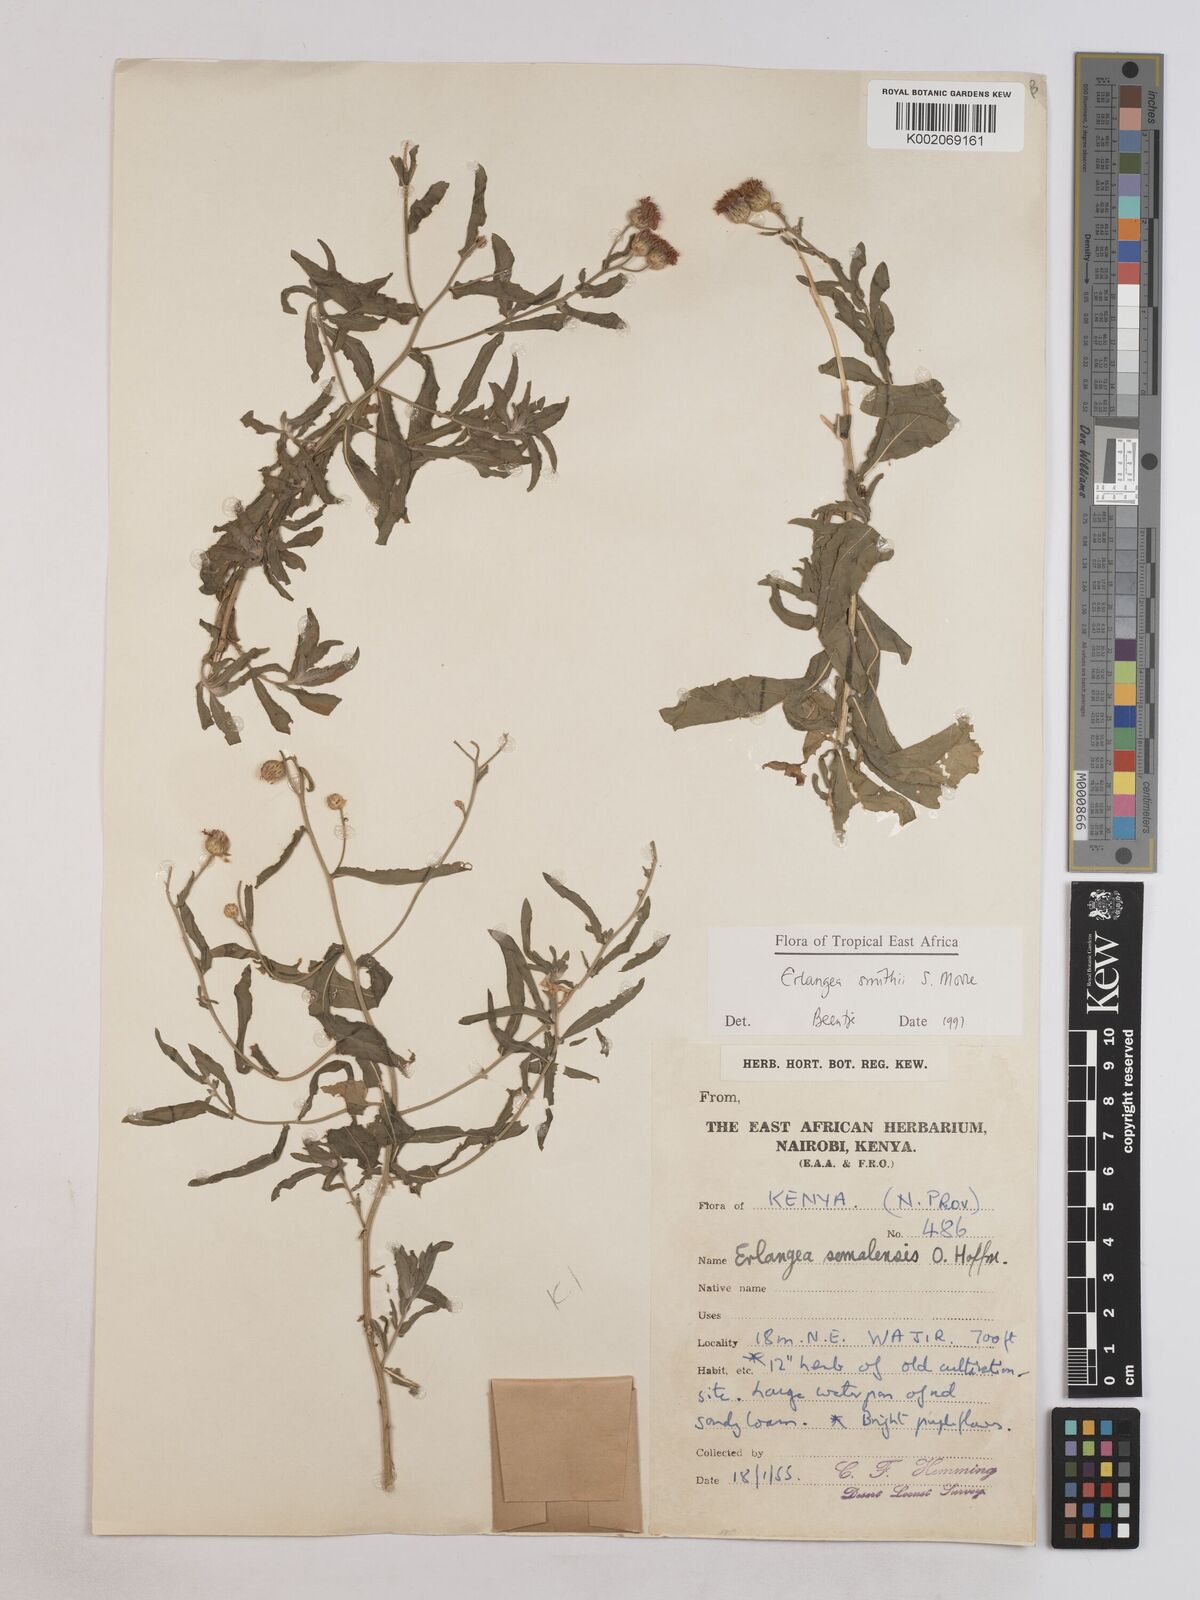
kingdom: Plantae
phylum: Tracheophyta
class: Magnoliopsida
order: Asterales
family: Asteraceae
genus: Erlangea
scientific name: Erlangea smithii
